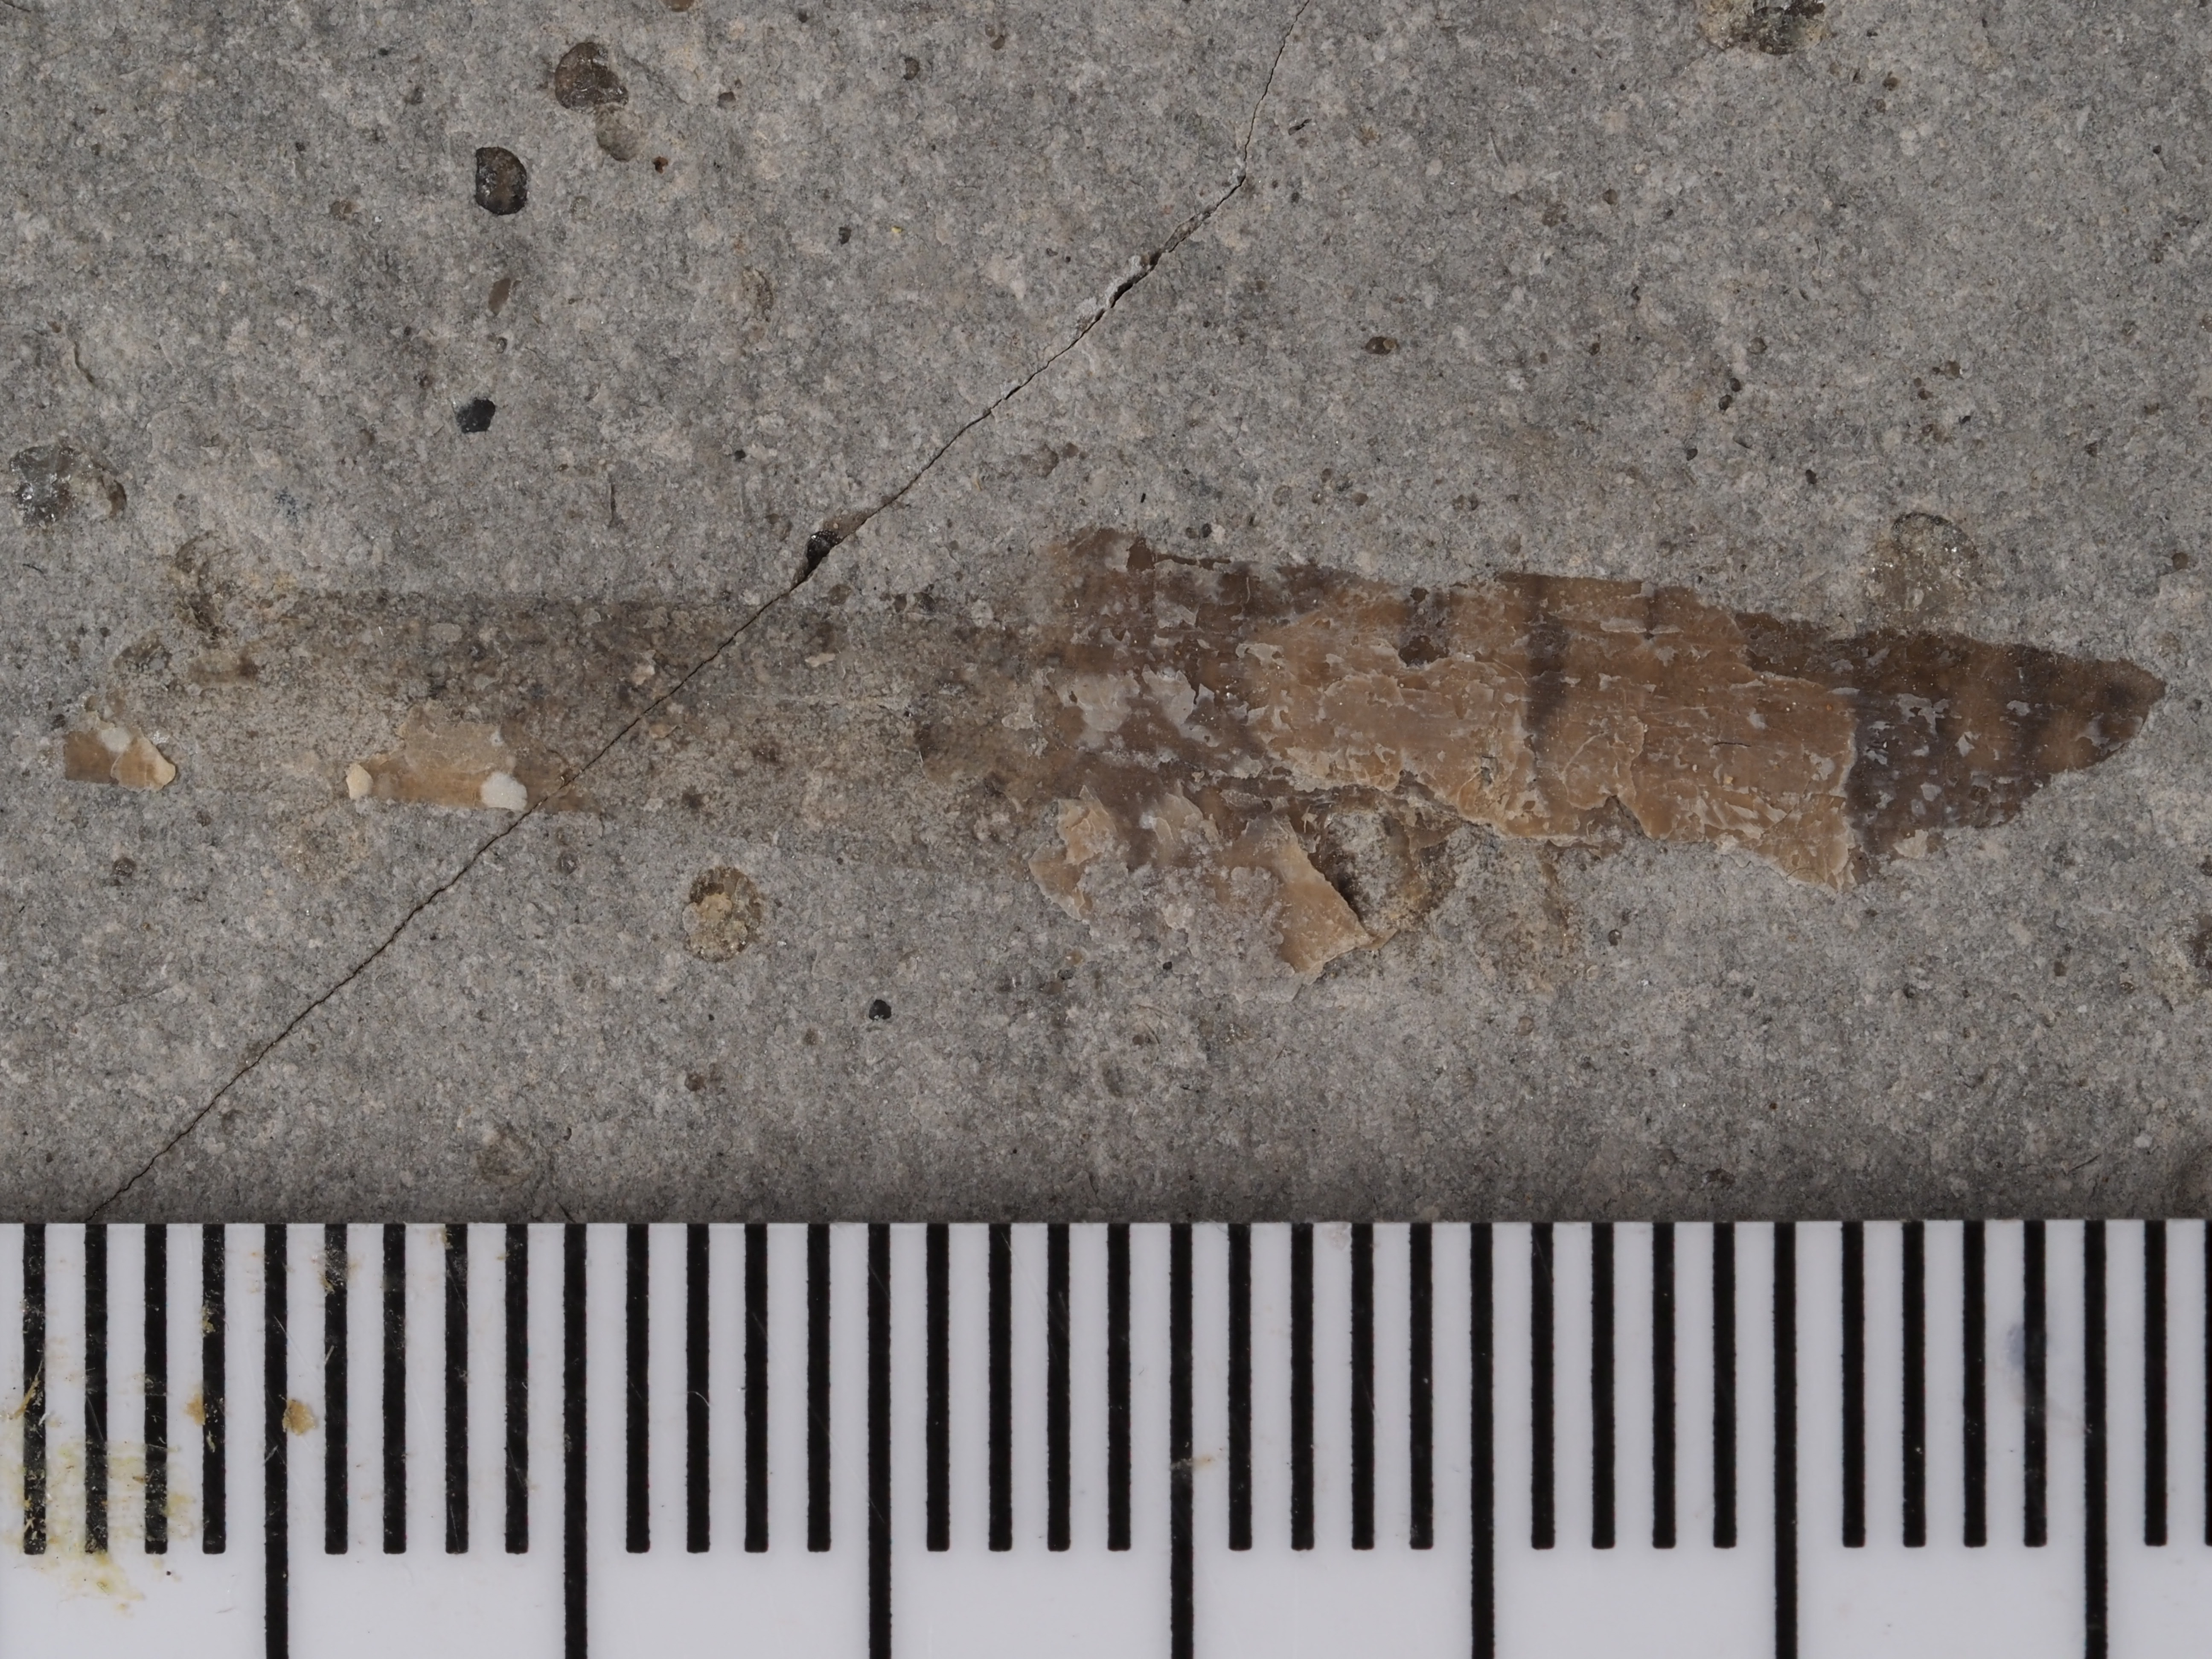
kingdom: Animalia
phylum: Mollusca
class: Cephalopoda
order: Belemnitida
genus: Chondroteuthis
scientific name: Chondroteuthis wunnenbergi
